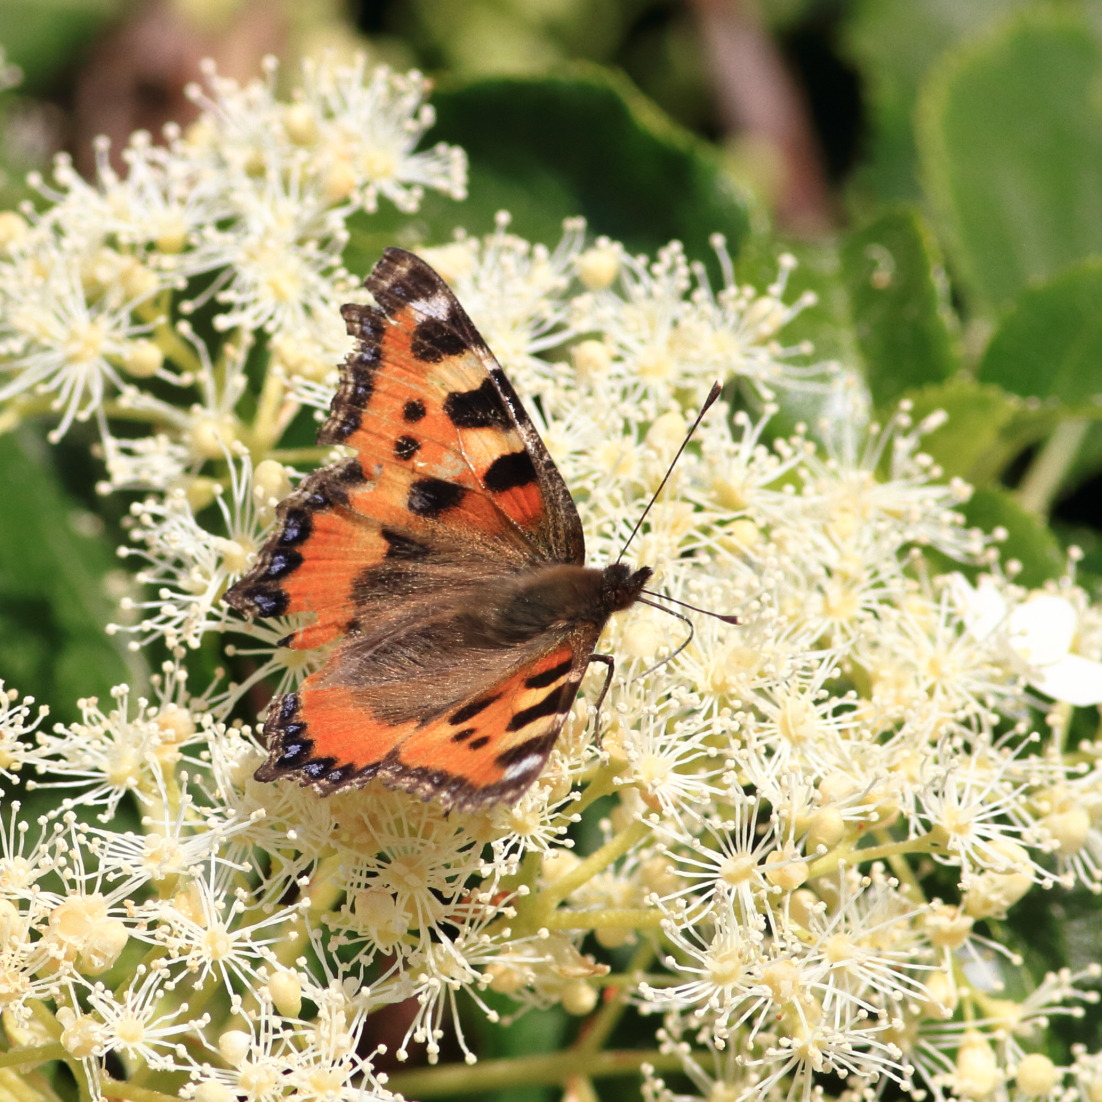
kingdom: Animalia
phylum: Arthropoda
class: Insecta
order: Lepidoptera
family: Nymphalidae
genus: Aglais
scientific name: Aglais urticae
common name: Nældens takvinge
